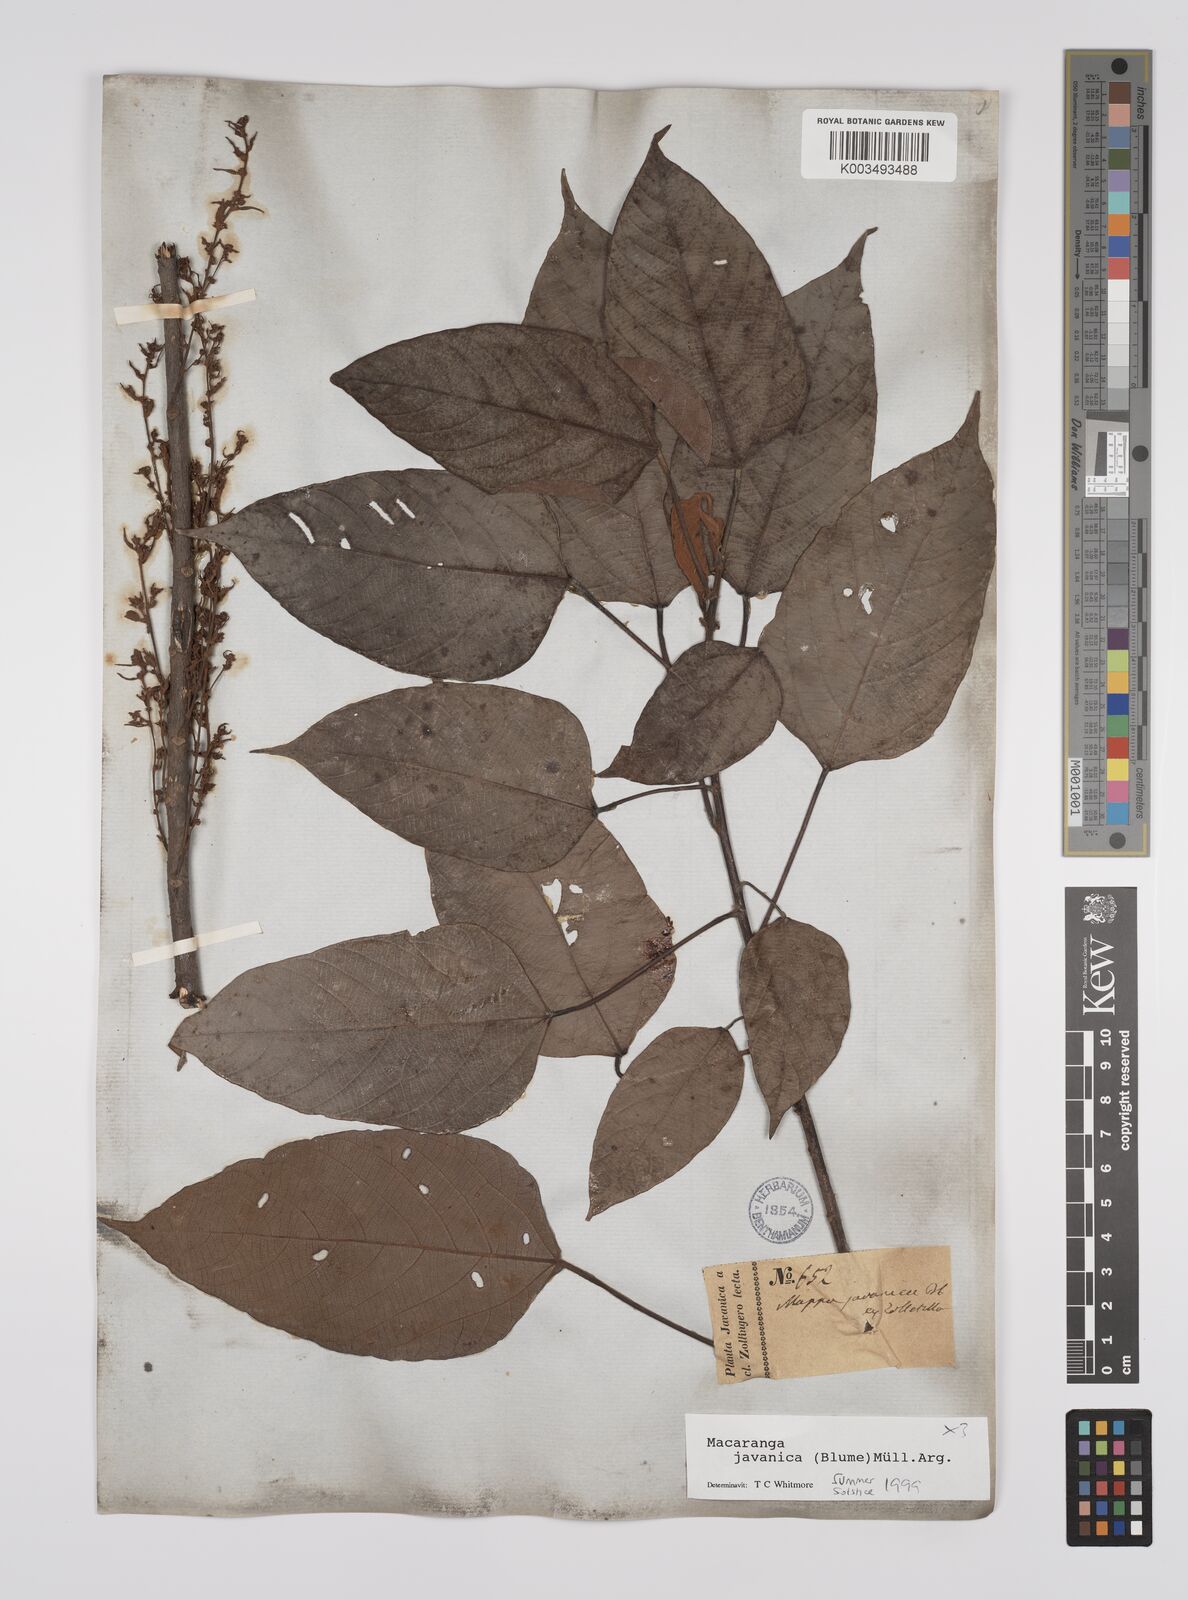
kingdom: Plantae
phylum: Tracheophyta
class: Magnoliopsida
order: Malpighiales
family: Euphorbiaceae
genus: Macaranga
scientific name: Macaranga javanica
